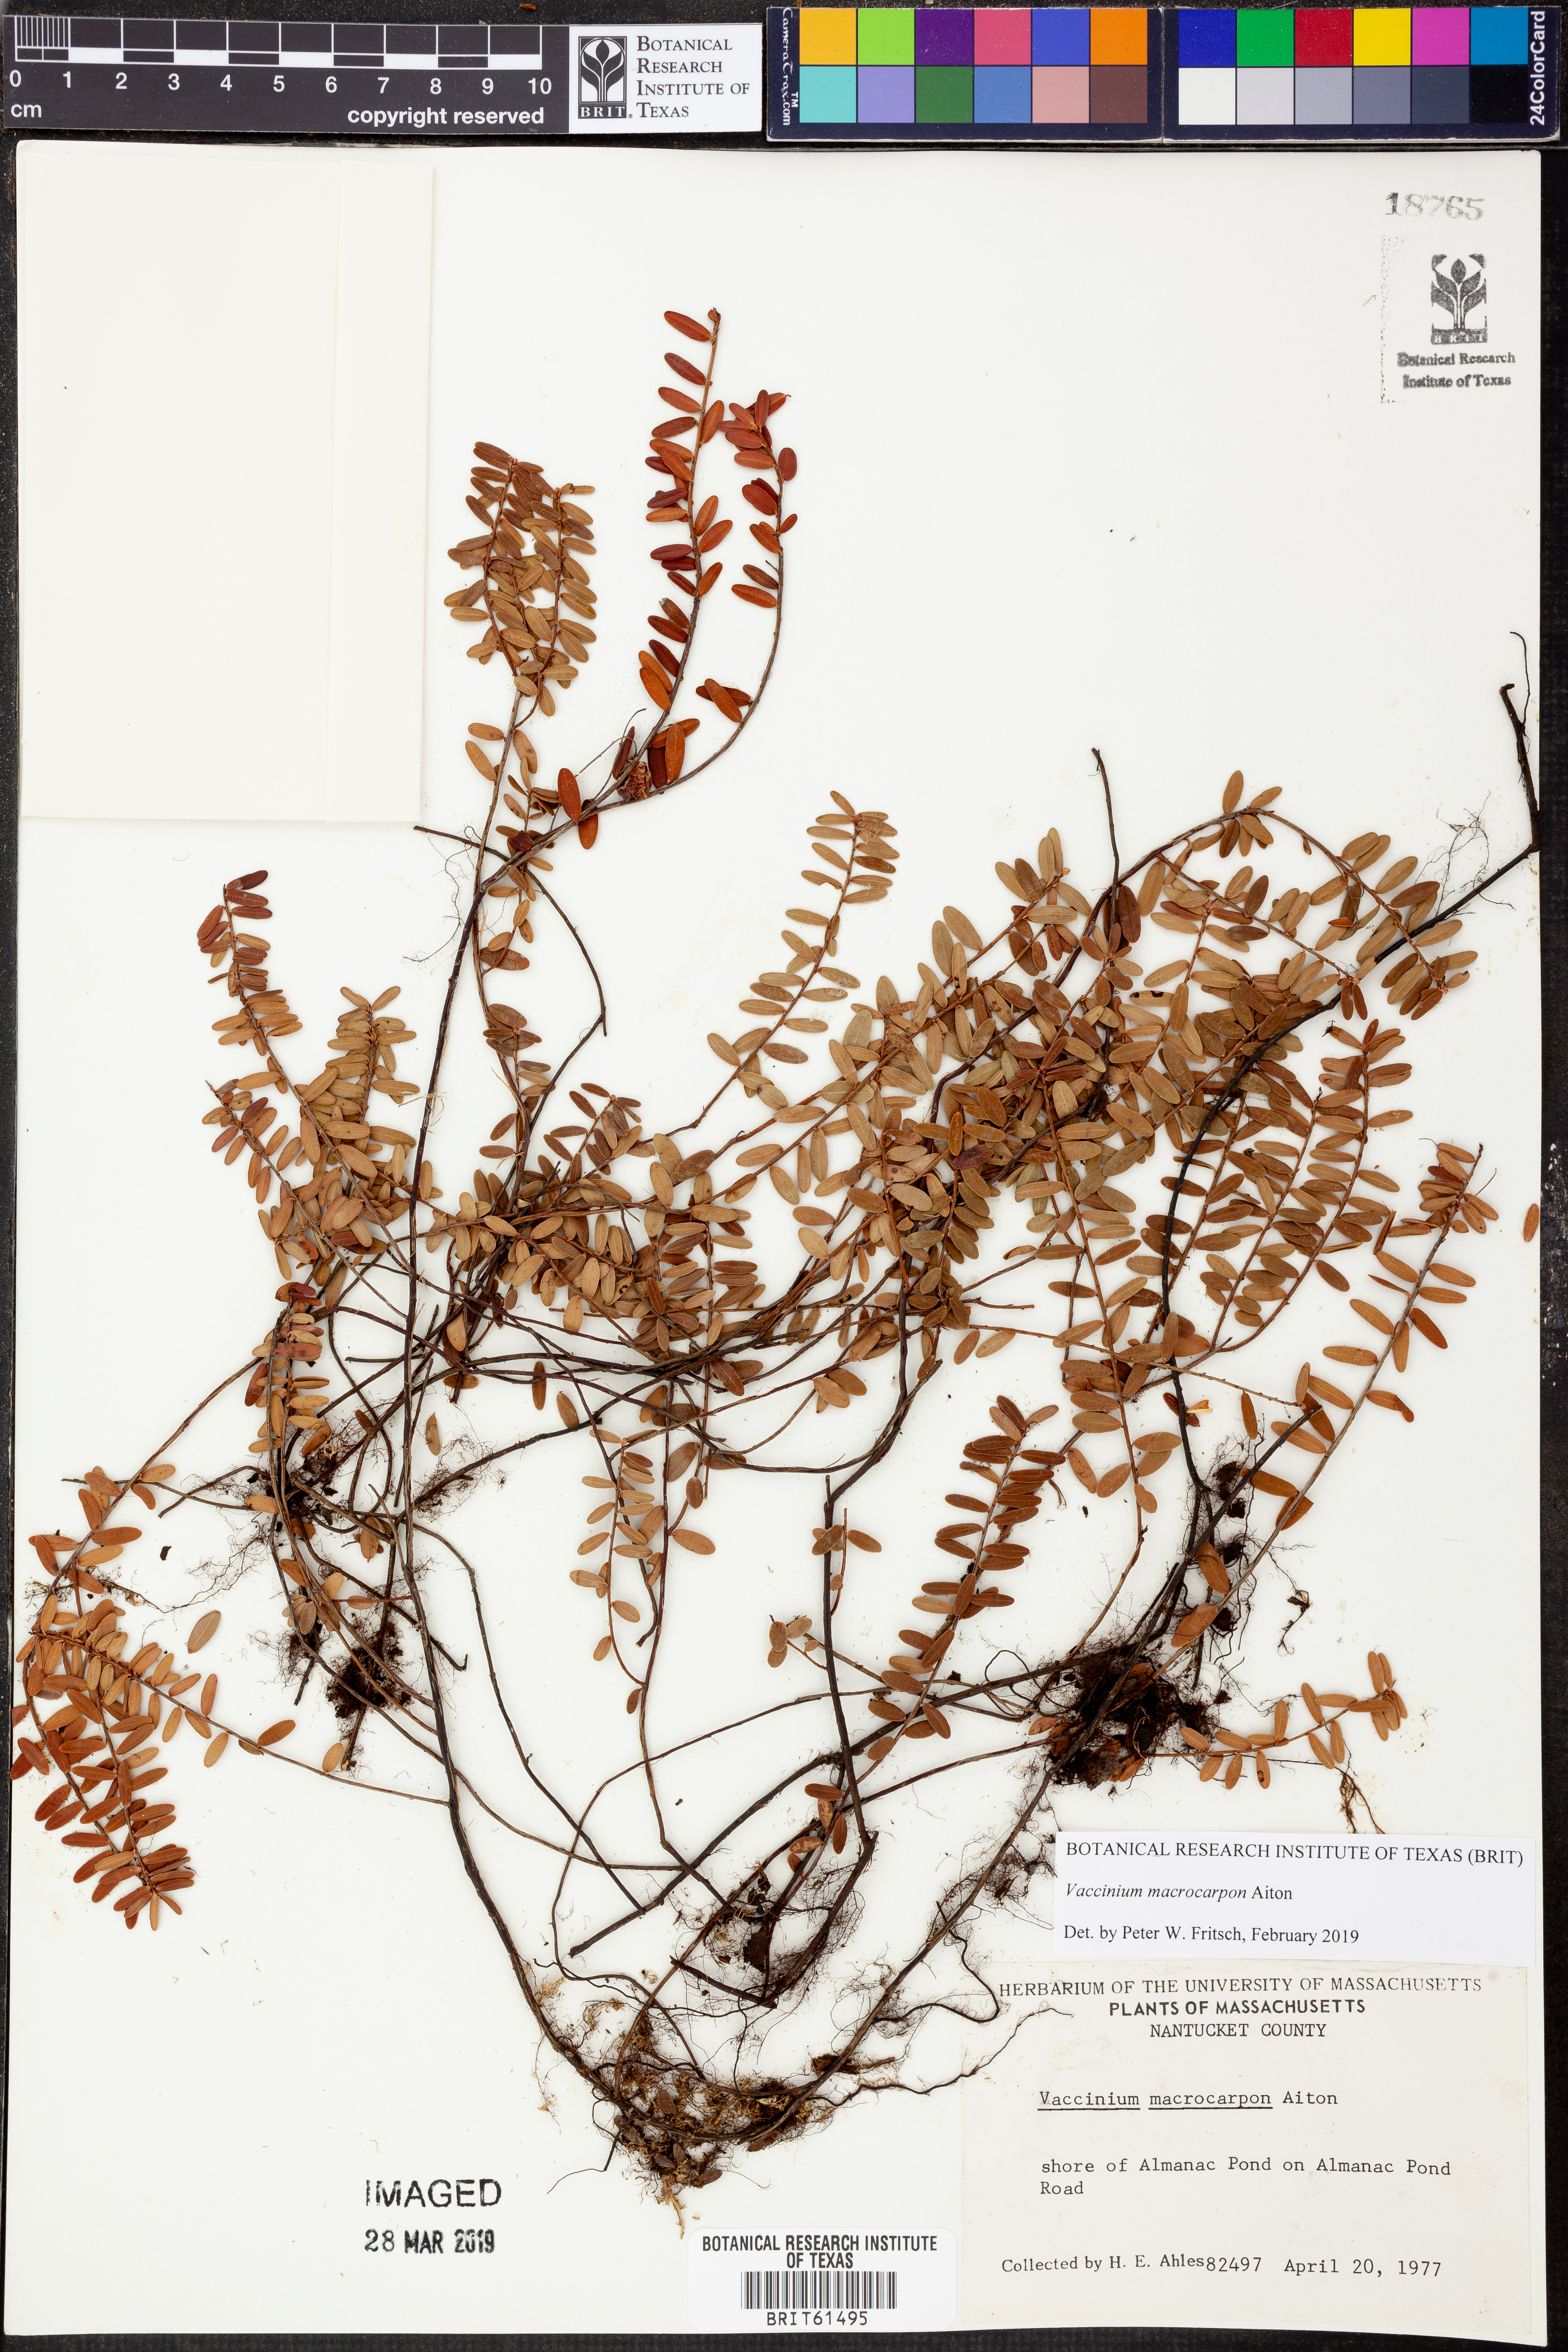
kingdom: Plantae
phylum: Tracheophyta
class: Magnoliopsida
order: Ericales
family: Ericaceae
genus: Vaccinium
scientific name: Vaccinium macrocarpon
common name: American cranberry
